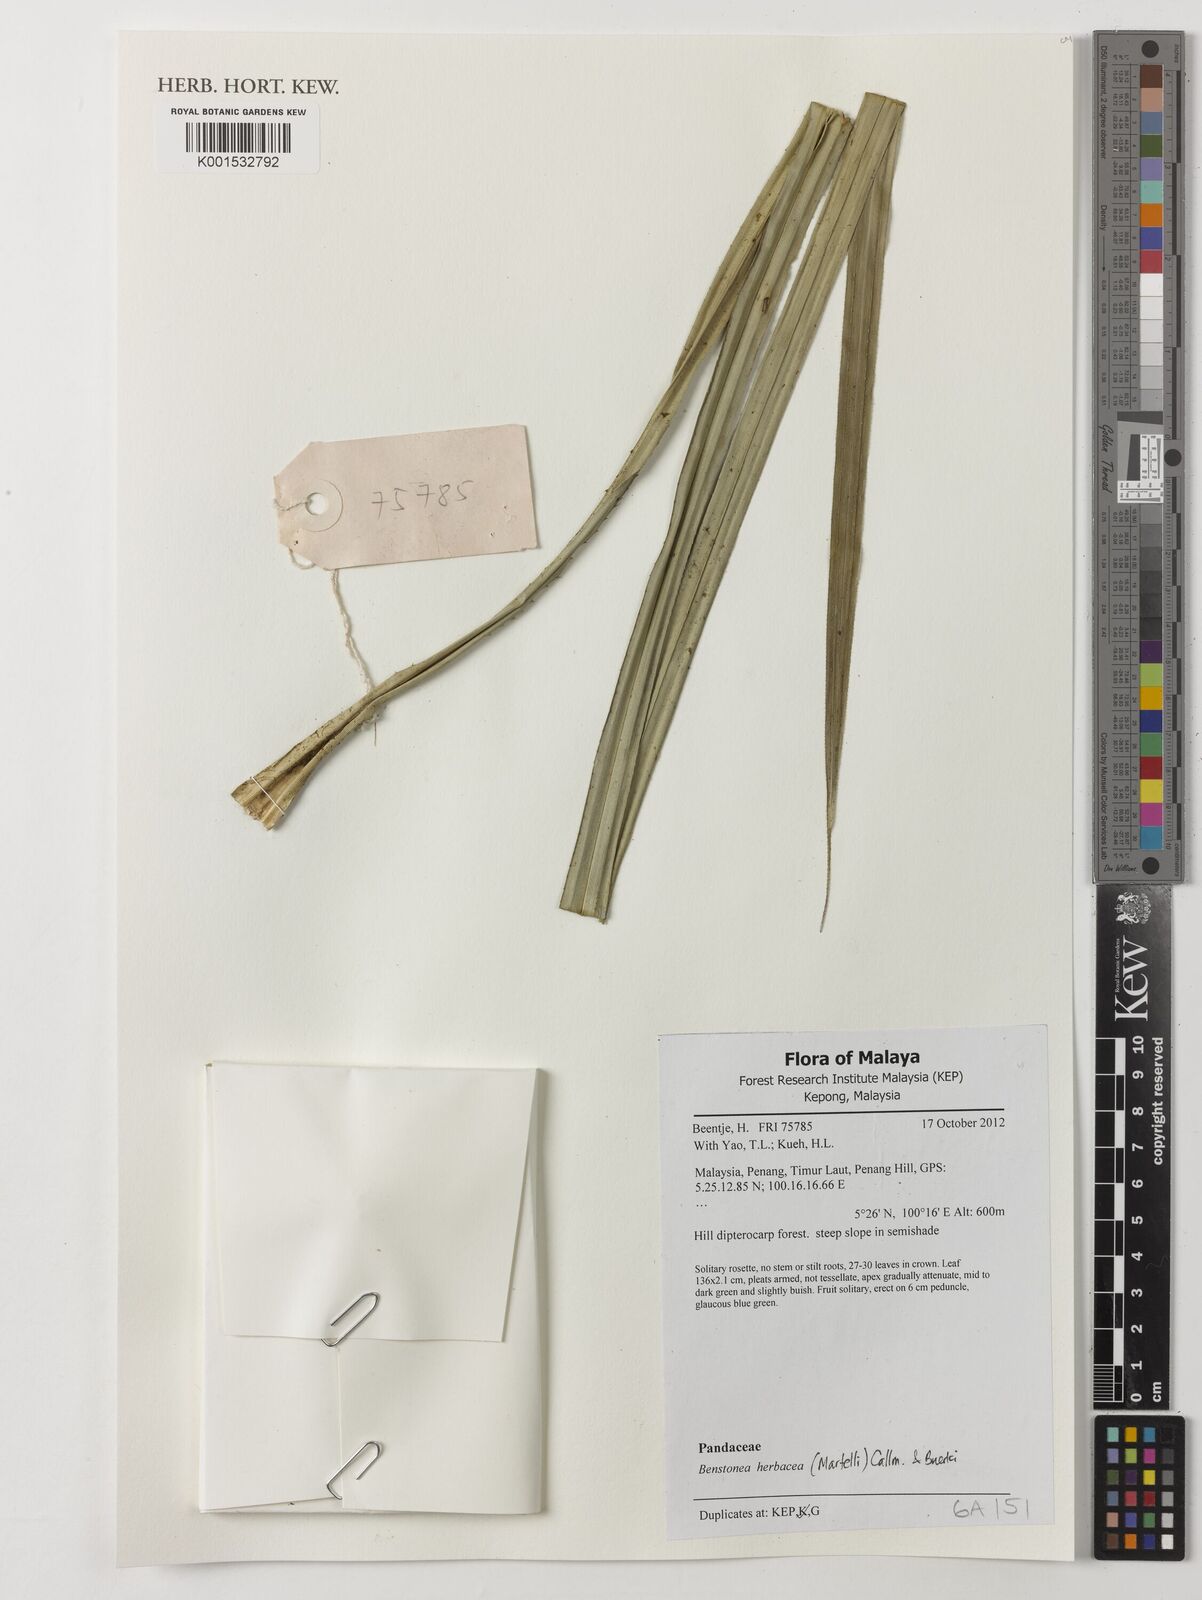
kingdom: Plantae
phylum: Tracheophyta
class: Liliopsida
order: Pandanales
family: Pandanaceae
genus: Benstonea
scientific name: Benstonea herbacea
